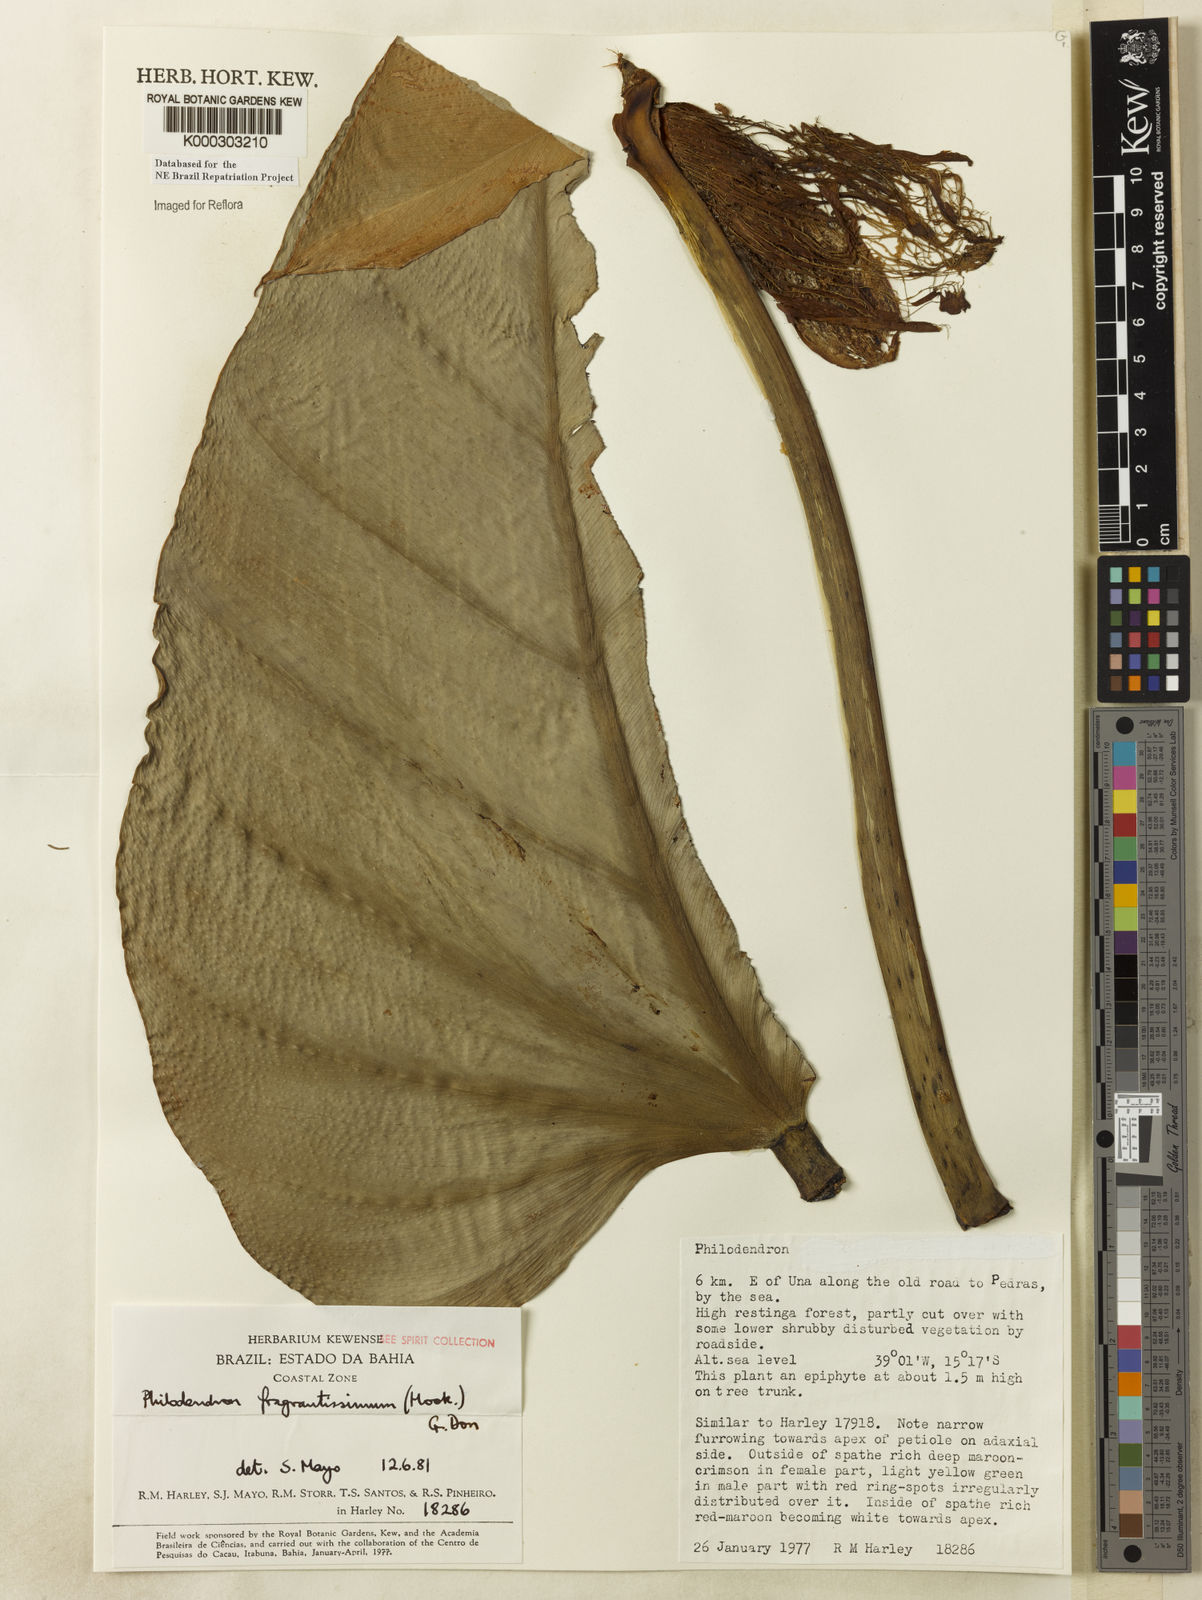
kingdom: Plantae
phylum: Tracheophyta
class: Liliopsida
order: Alismatales
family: Araceae
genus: Philodendron
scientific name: Philodendron fragrantissimum
